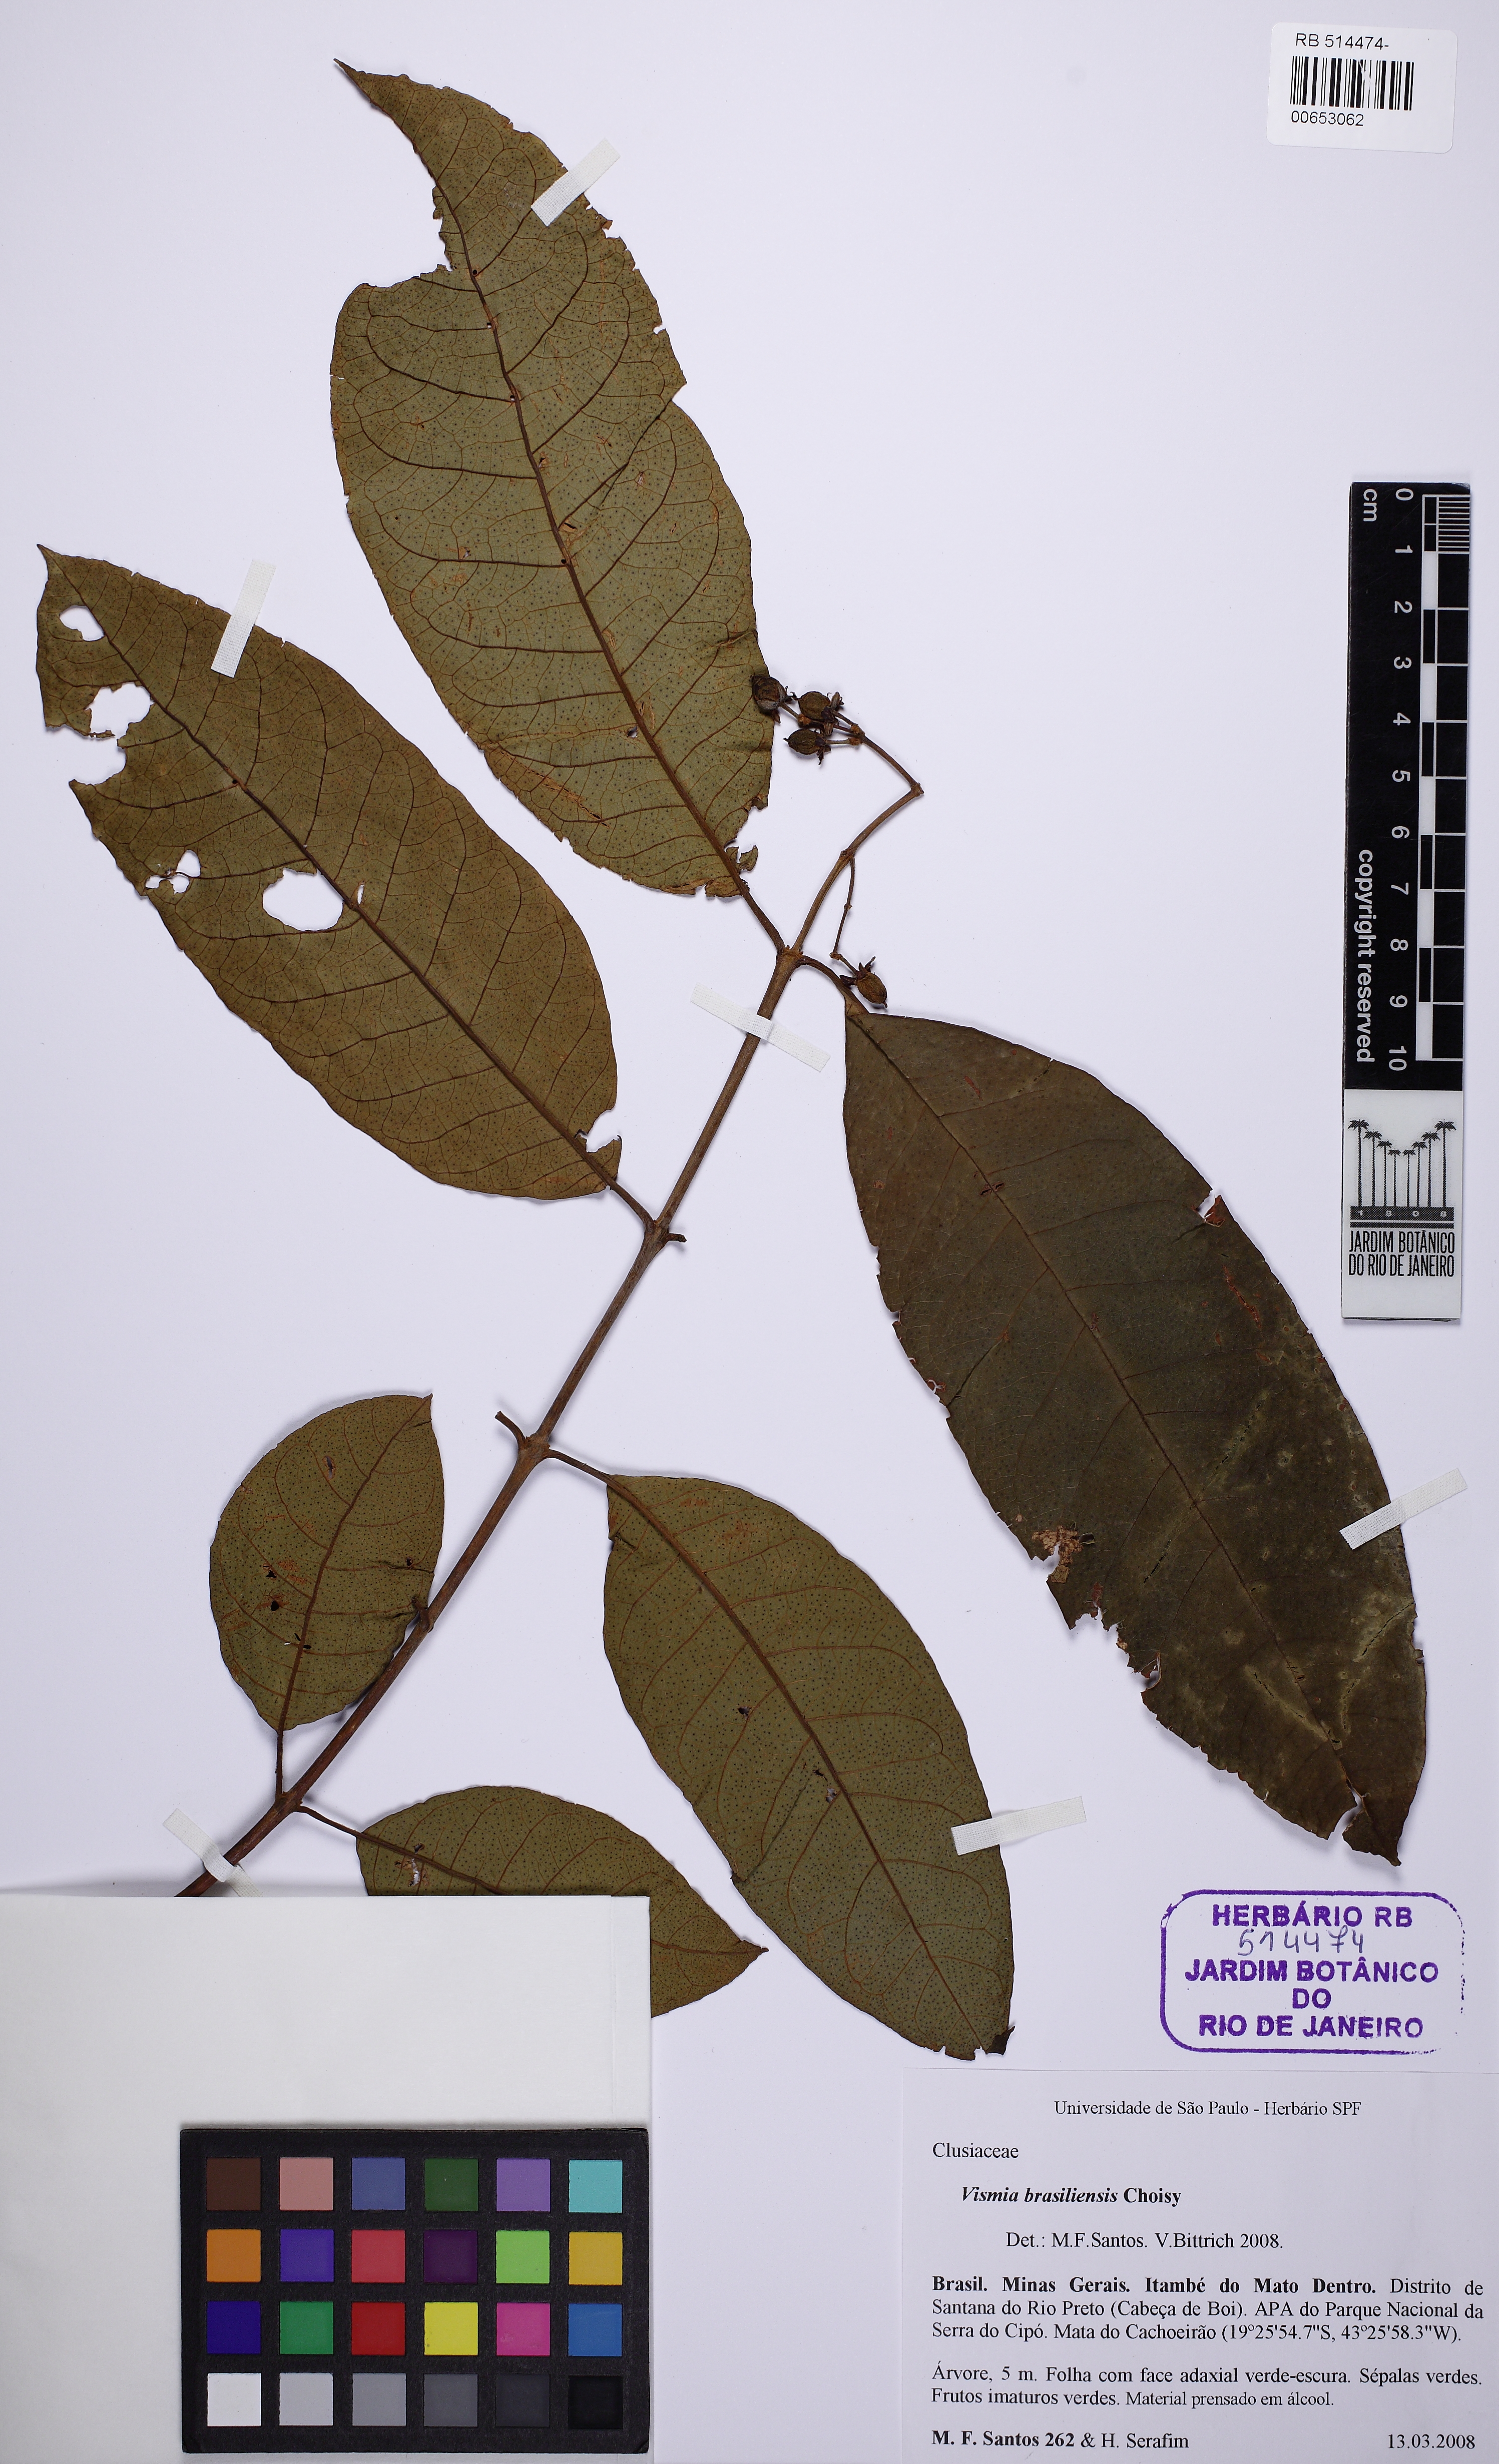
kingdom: Plantae
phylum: Tracheophyta
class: Magnoliopsida
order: Malpighiales
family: Hypericaceae
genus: Vismia
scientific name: Vismia brasiliensis
